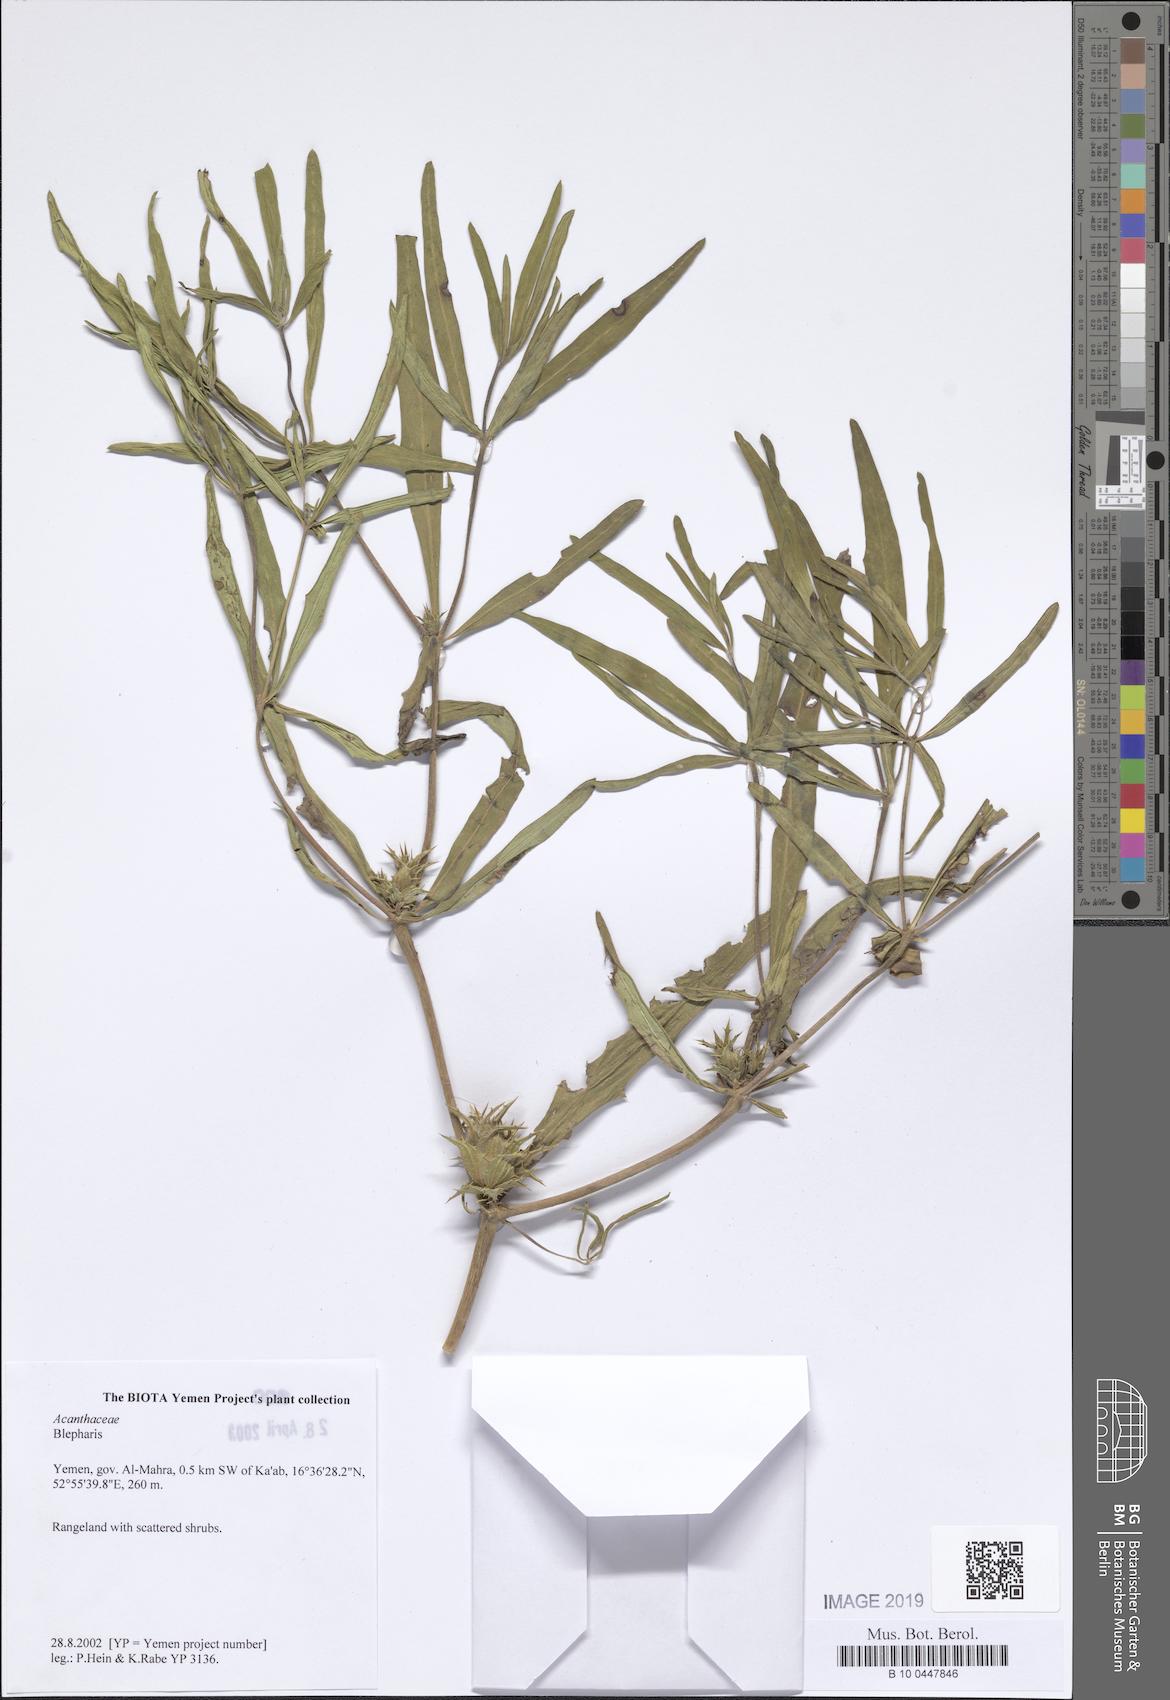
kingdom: Plantae
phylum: Tracheophyta
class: Magnoliopsida
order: Lamiales
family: Acanthaceae
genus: Blepharis
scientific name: Blepharis
